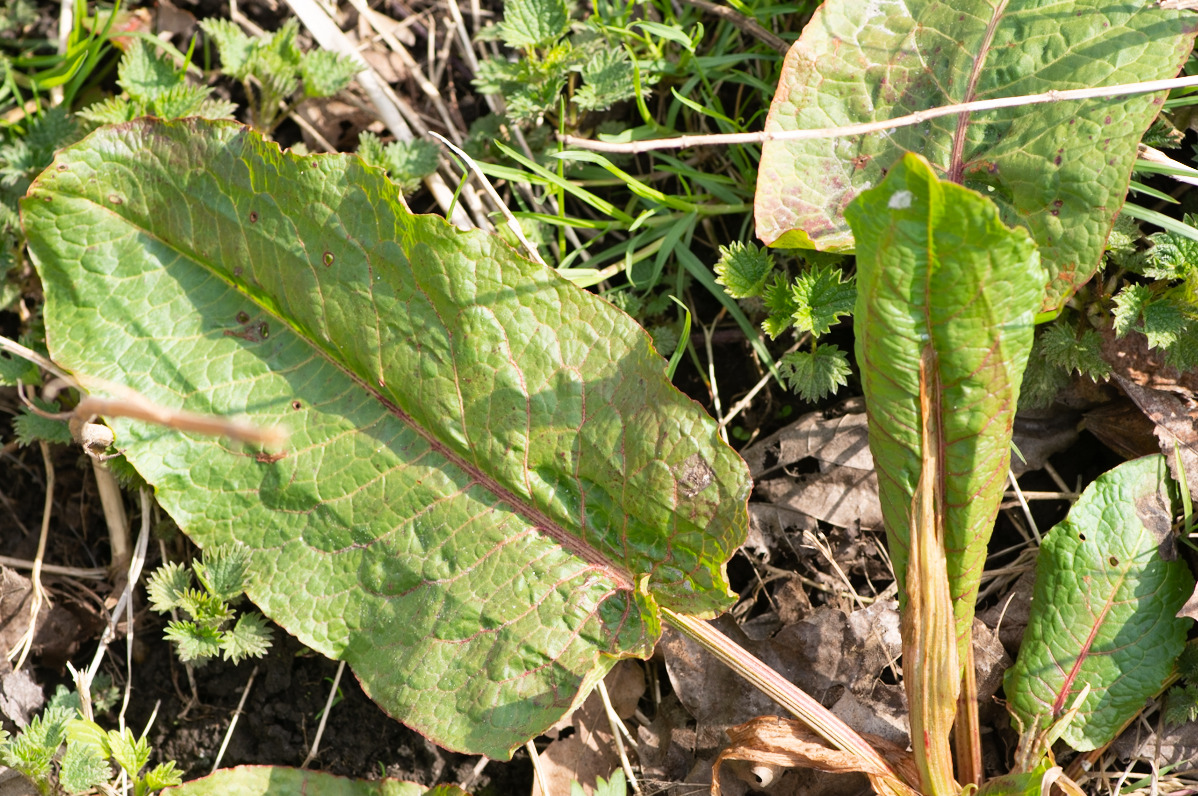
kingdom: Plantae
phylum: Tracheophyta
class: Magnoliopsida
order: Caryophyllales
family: Polygonaceae
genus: Rumex
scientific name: Rumex obtusifolius
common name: Butbladet skræppe
